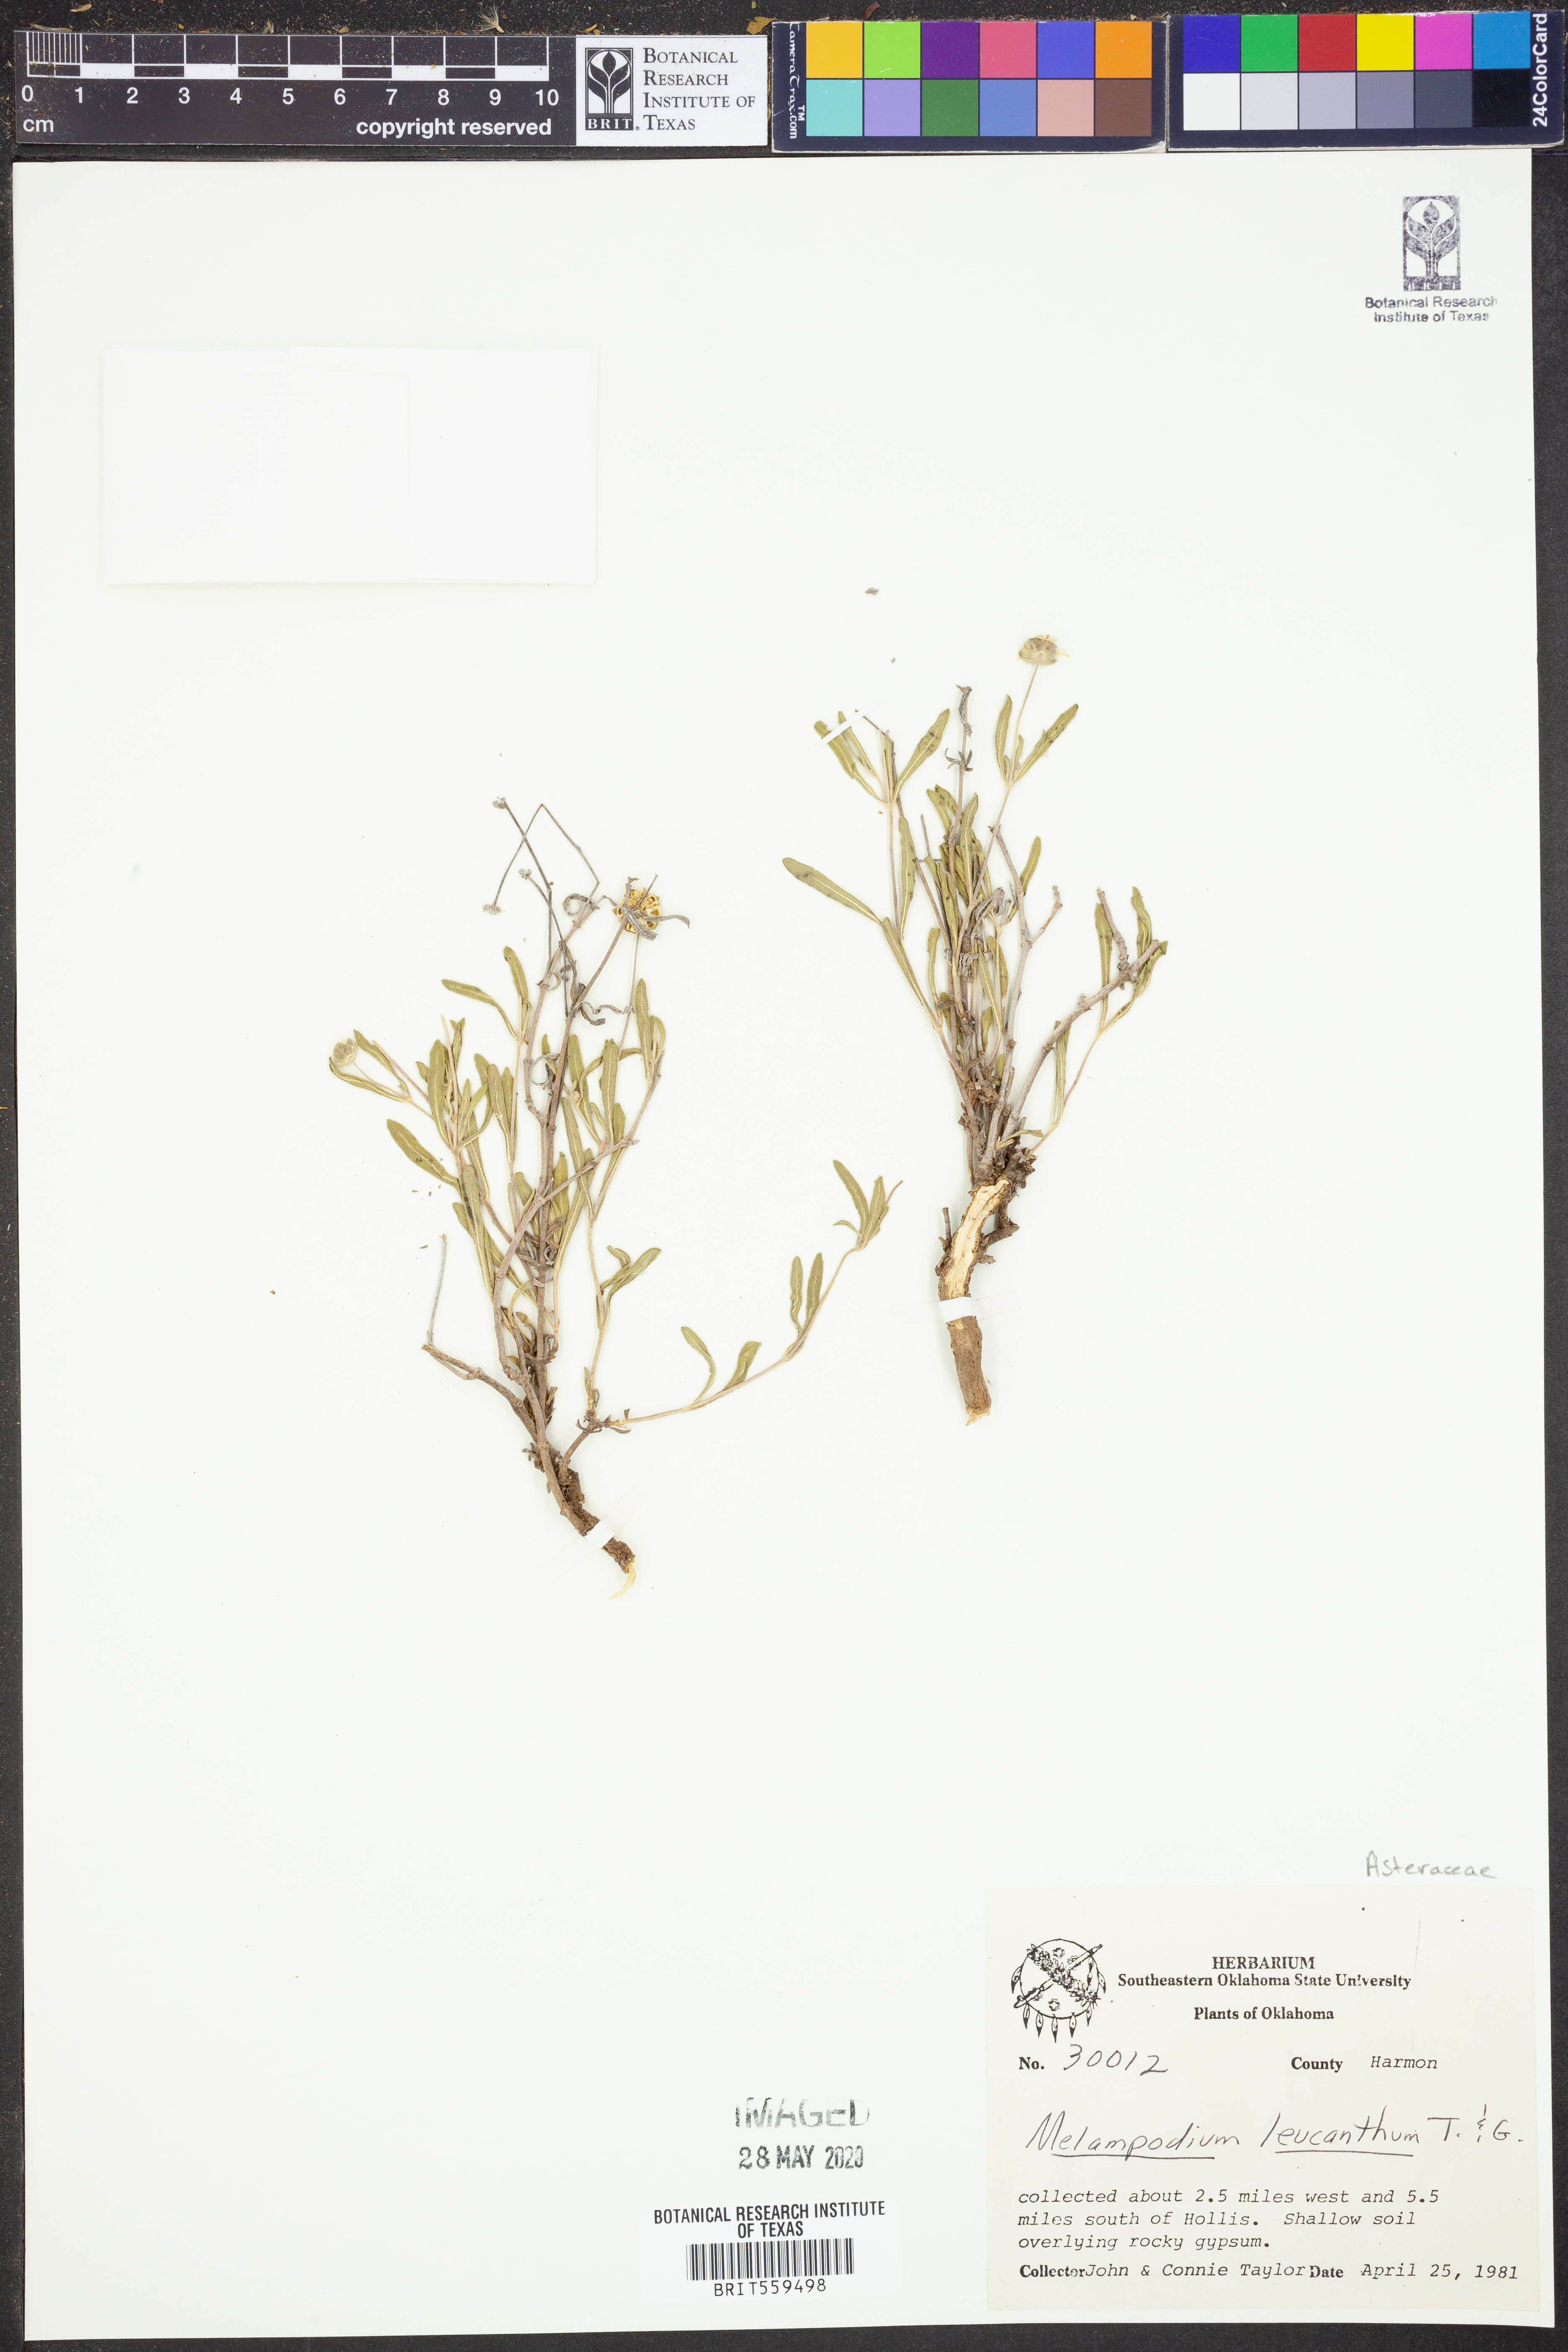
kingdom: Plantae
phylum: Tracheophyta
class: Magnoliopsida
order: Asterales
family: Asteraceae
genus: Melampodium
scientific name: Melampodium leucanthum
